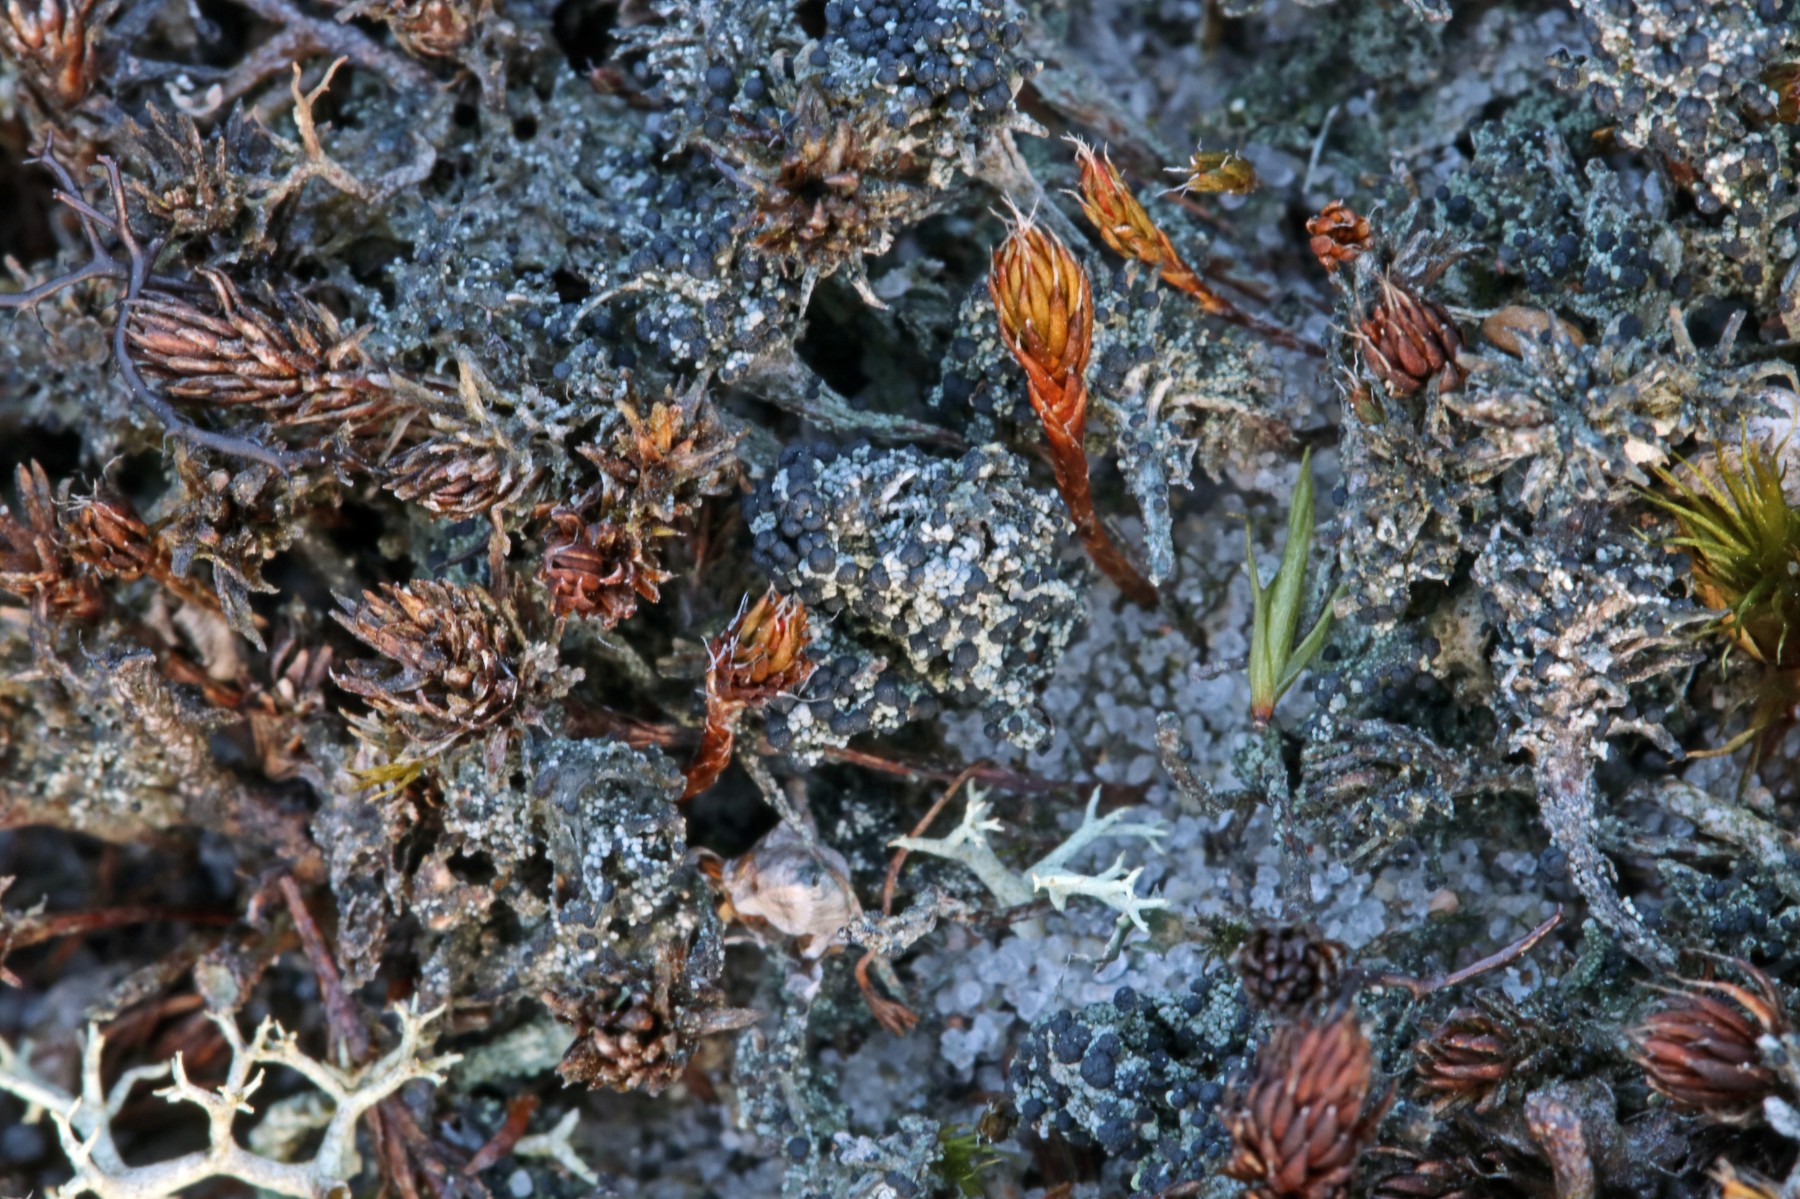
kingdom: Fungi
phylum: Ascomycota
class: Lecanoromycetes
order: Lecanorales
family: Byssolomataceae
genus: Micarea
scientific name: Micarea lignaria
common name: tørve-knaplav
